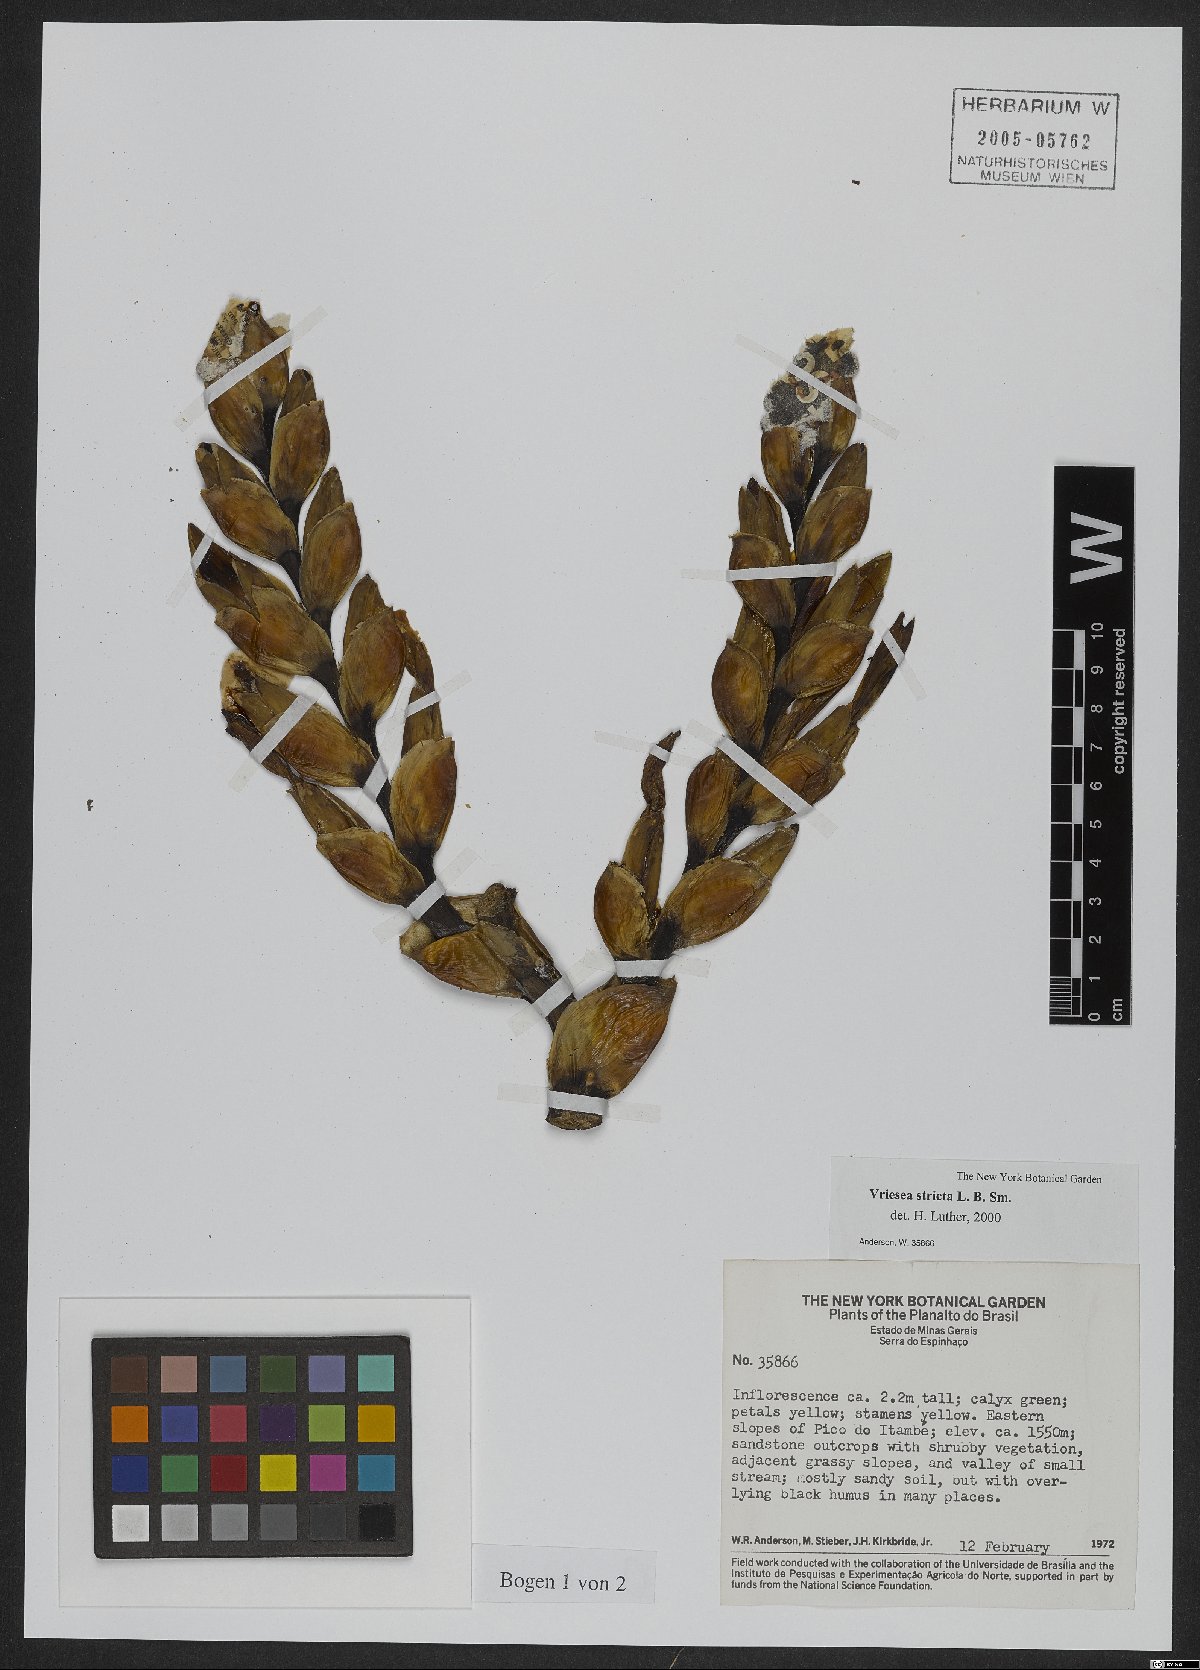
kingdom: Plantae
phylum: Tracheophyta
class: Liliopsida
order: Poales
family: Bromeliaceae
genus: Vriesea
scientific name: Vriesea crassa
